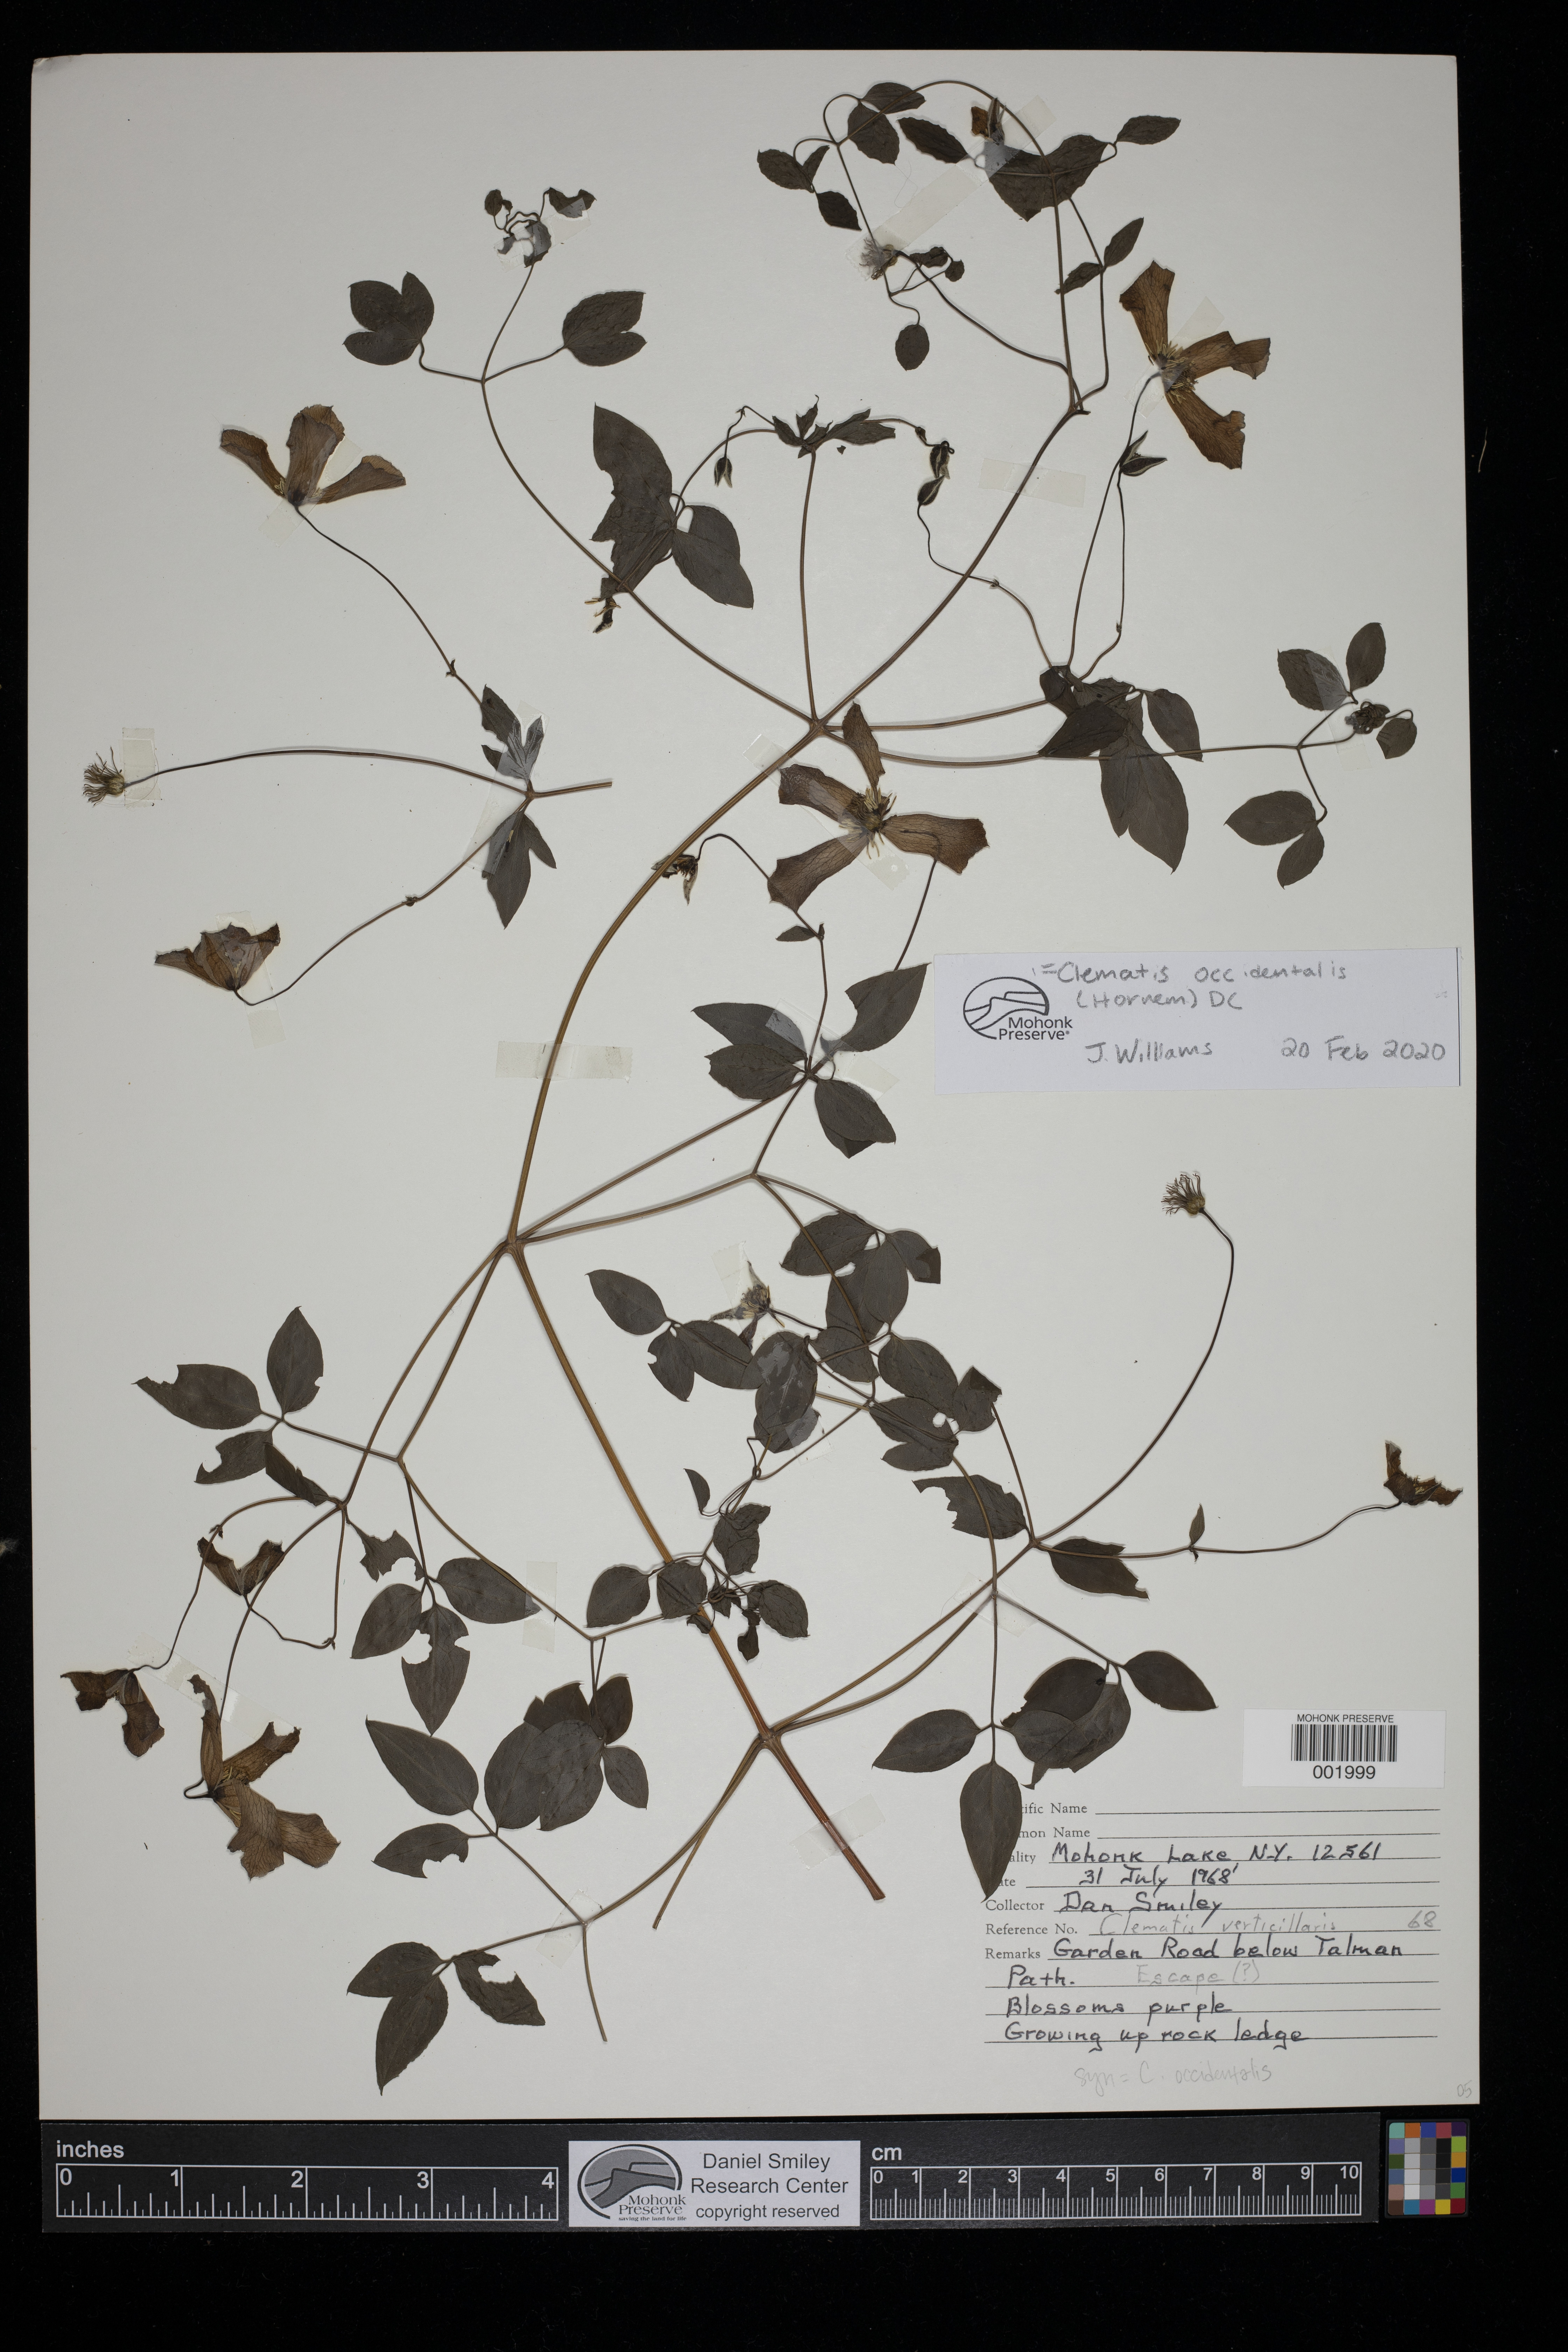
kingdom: Plantae
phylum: Tracheophyta
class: Magnoliopsida
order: Ranunculales
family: Ranunculaceae
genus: Clematis
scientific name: Clematis occidentalis
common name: Purple clematis
